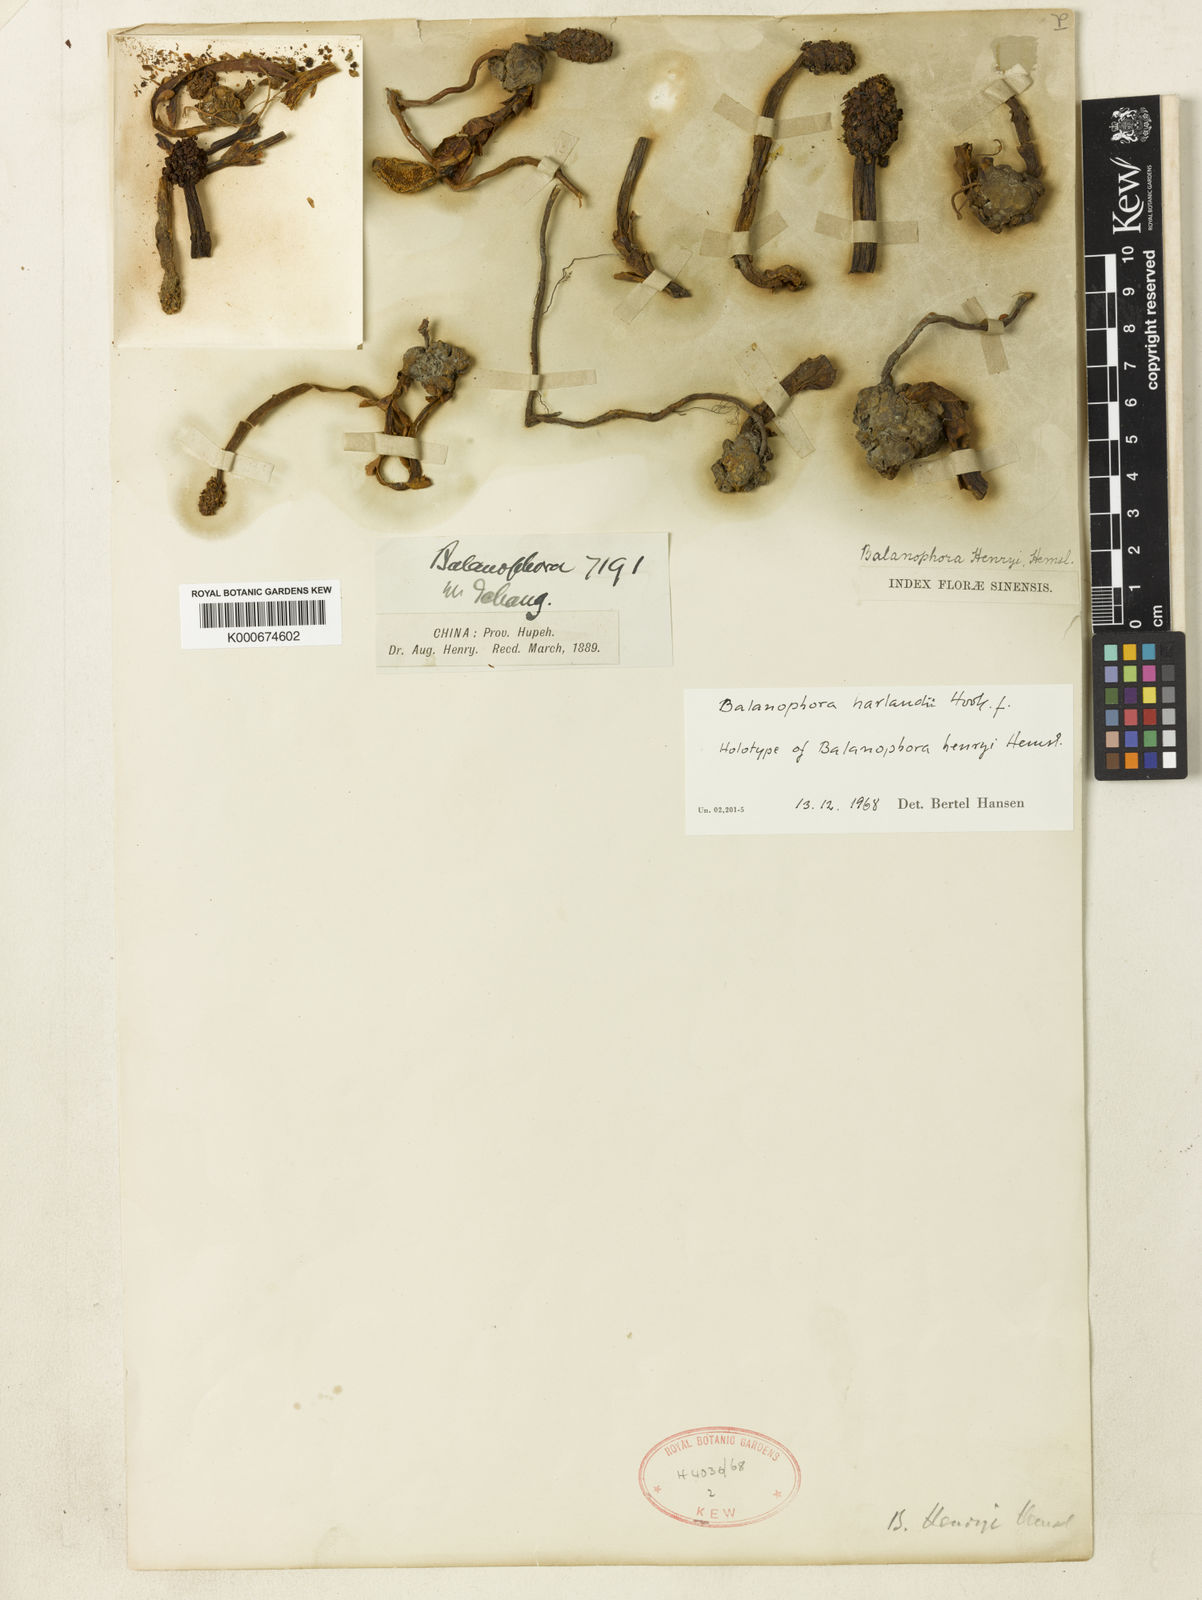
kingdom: Plantae
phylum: Tracheophyta
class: Magnoliopsida
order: Santalales
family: Balanophoraceae
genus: Balanophora
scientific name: Balanophora harlandii
